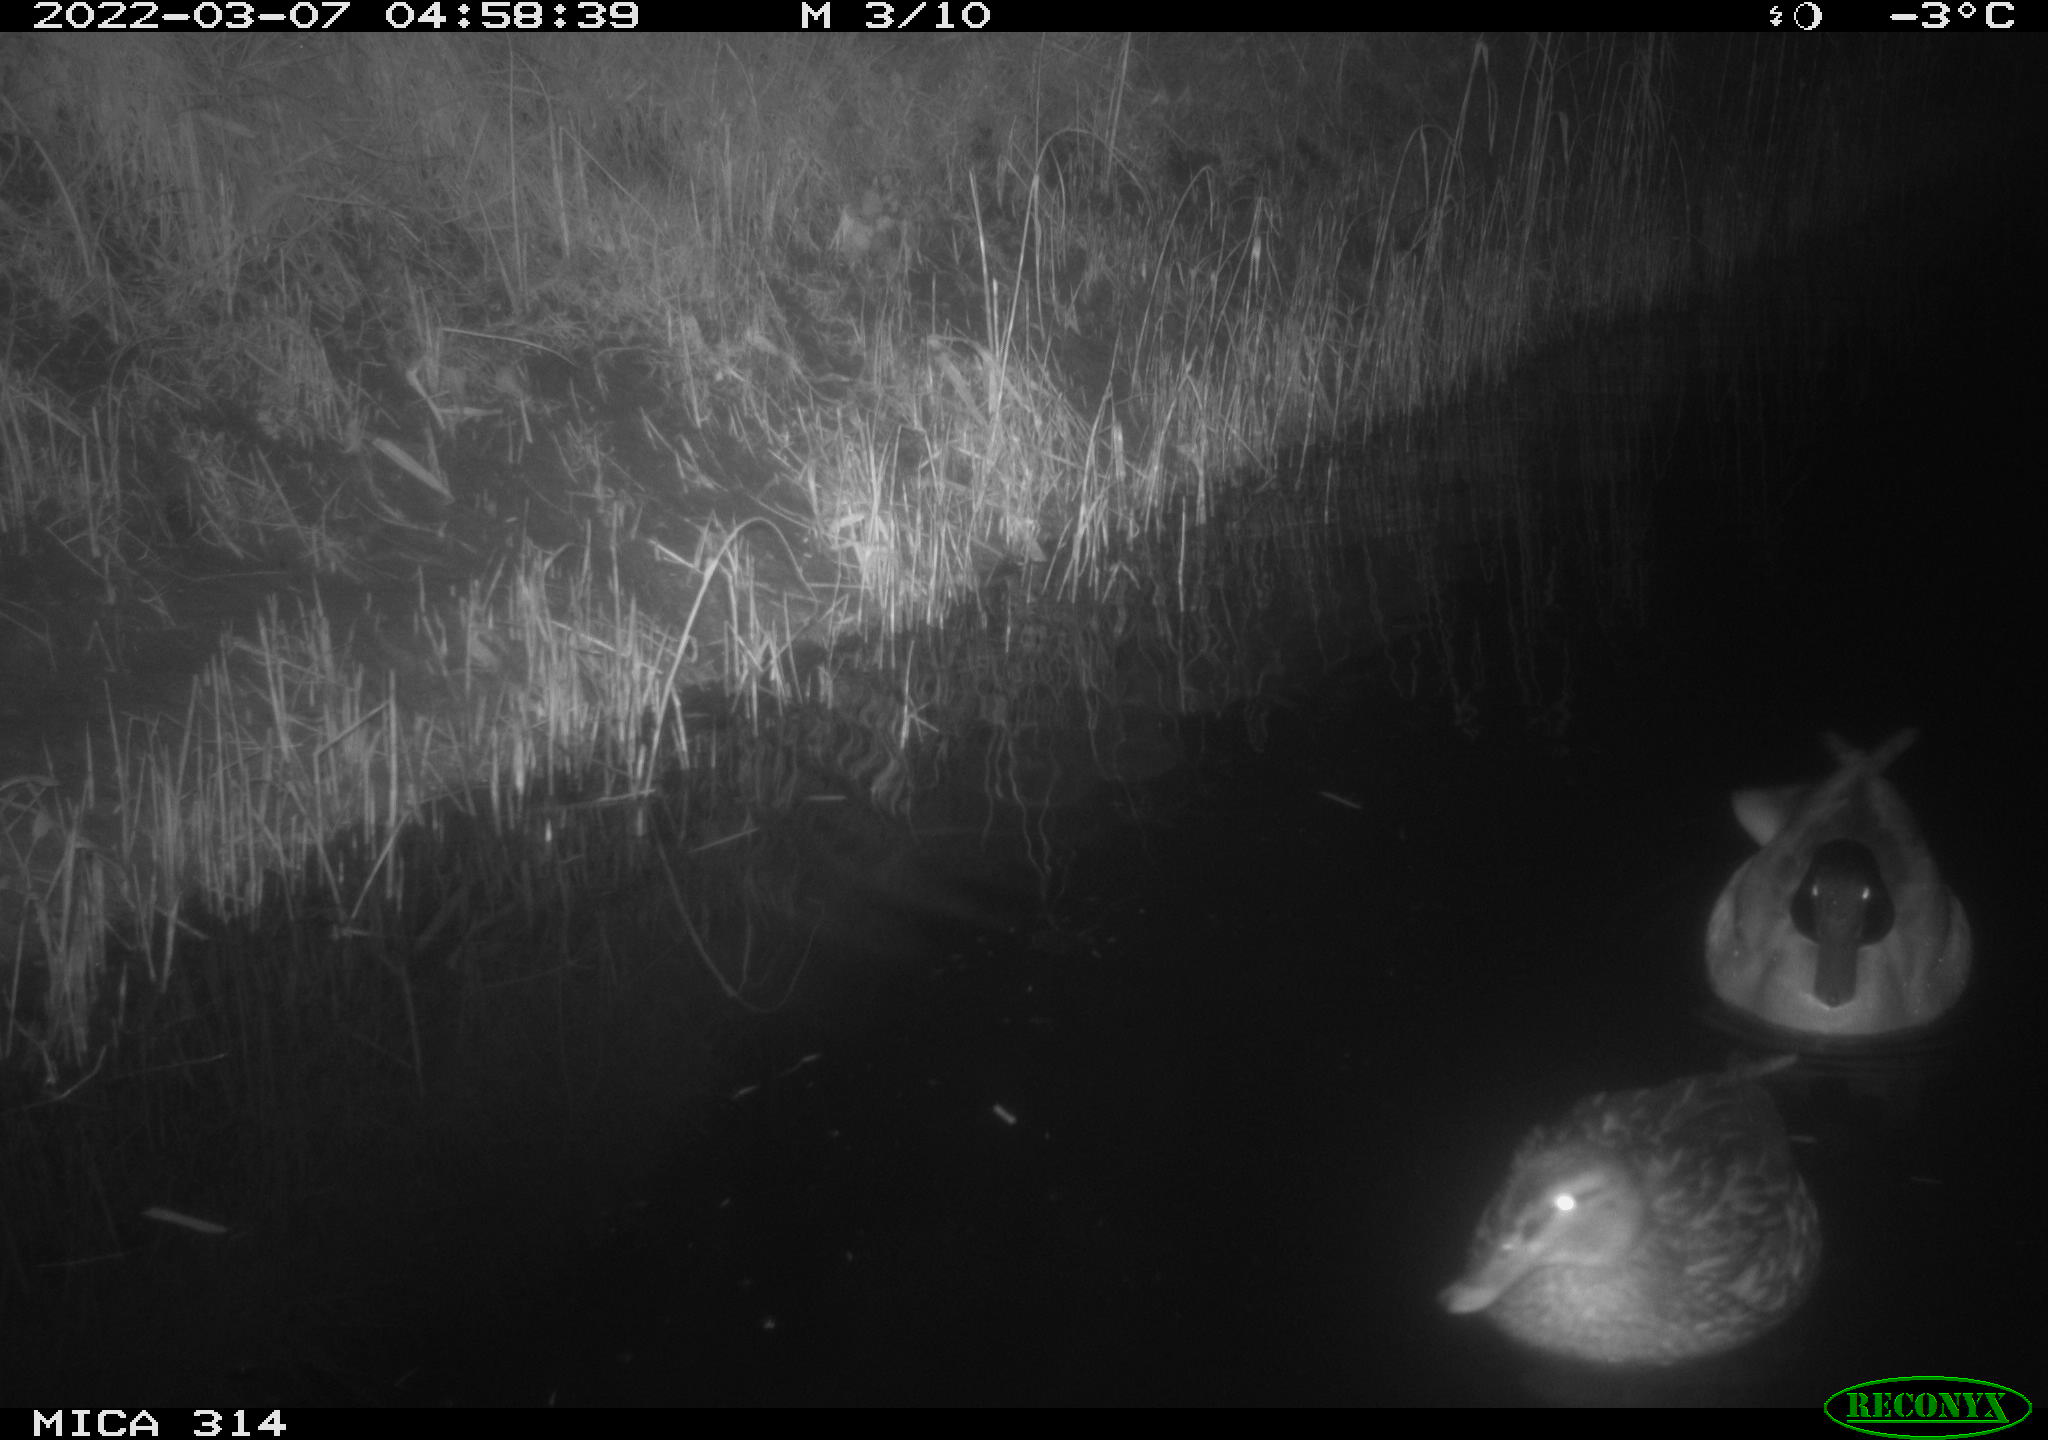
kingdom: Animalia
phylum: Chordata
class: Aves
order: Anseriformes
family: Anatidae
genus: Anas
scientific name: Anas platyrhynchos
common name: Mallard
